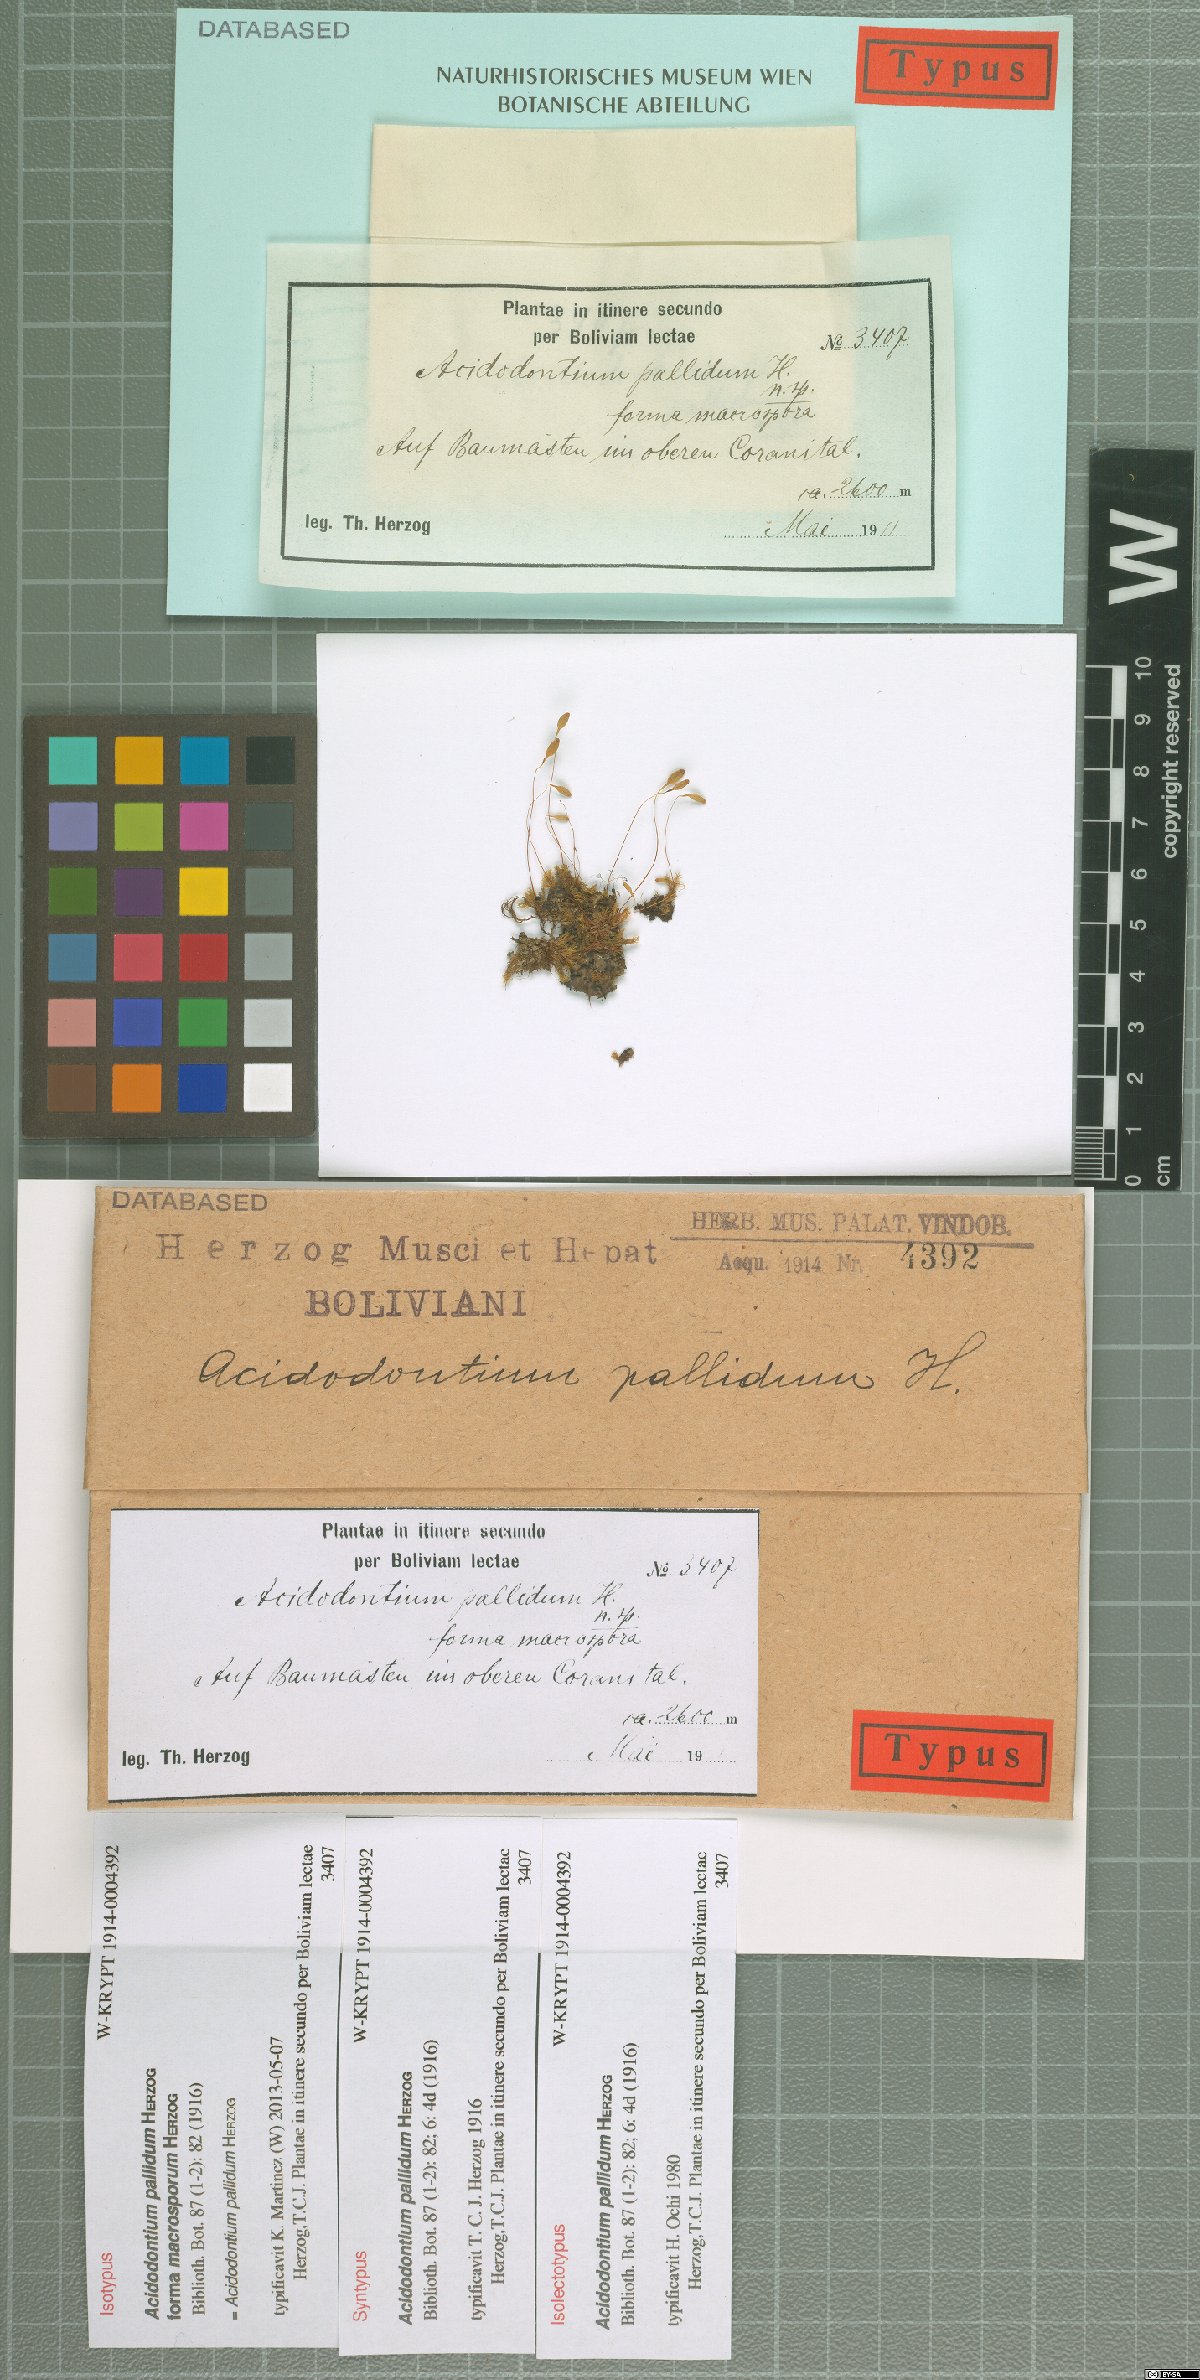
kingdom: Plantae
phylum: Bryophyta
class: Bryopsida
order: Bryales
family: Bryaceae
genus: Acidodontium
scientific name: Acidodontium pallidum
